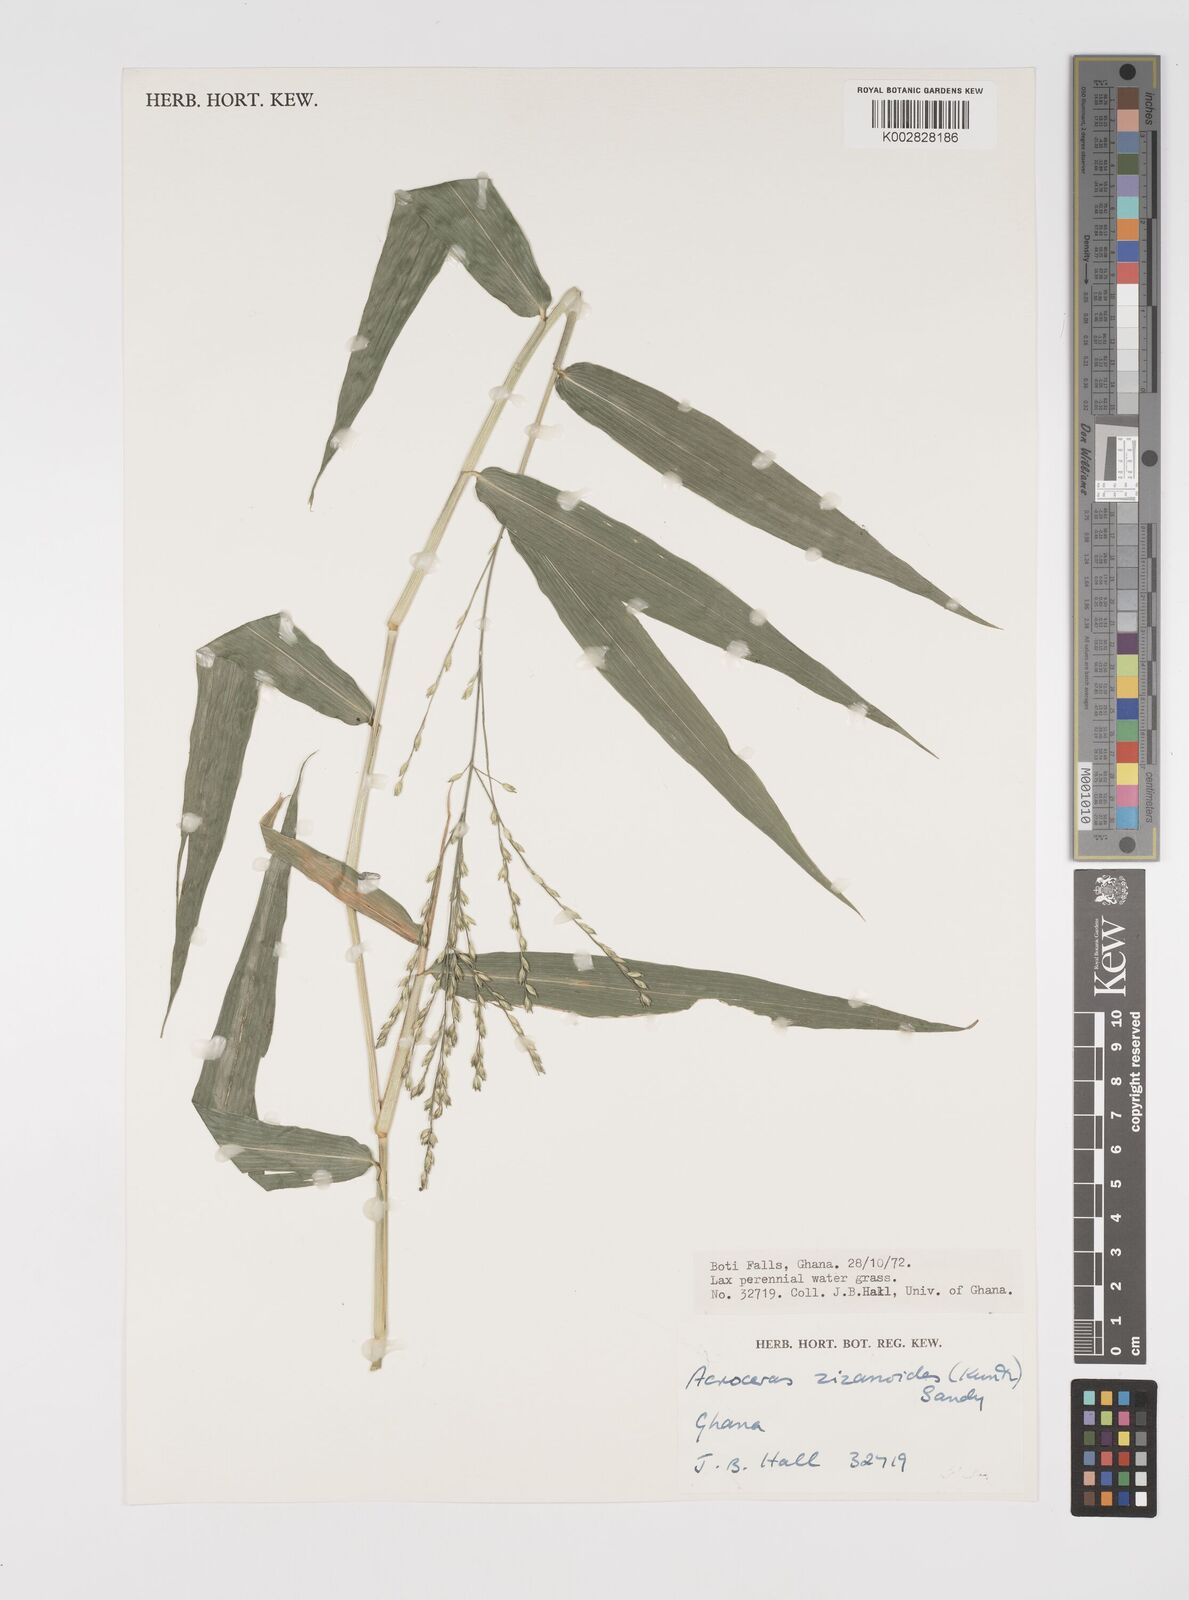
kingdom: Plantae
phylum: Tracheophyta
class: Liliopsida
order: Poales
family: Poaceae
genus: Acroceras
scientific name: Acroceras zizanioides
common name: Oat grass
